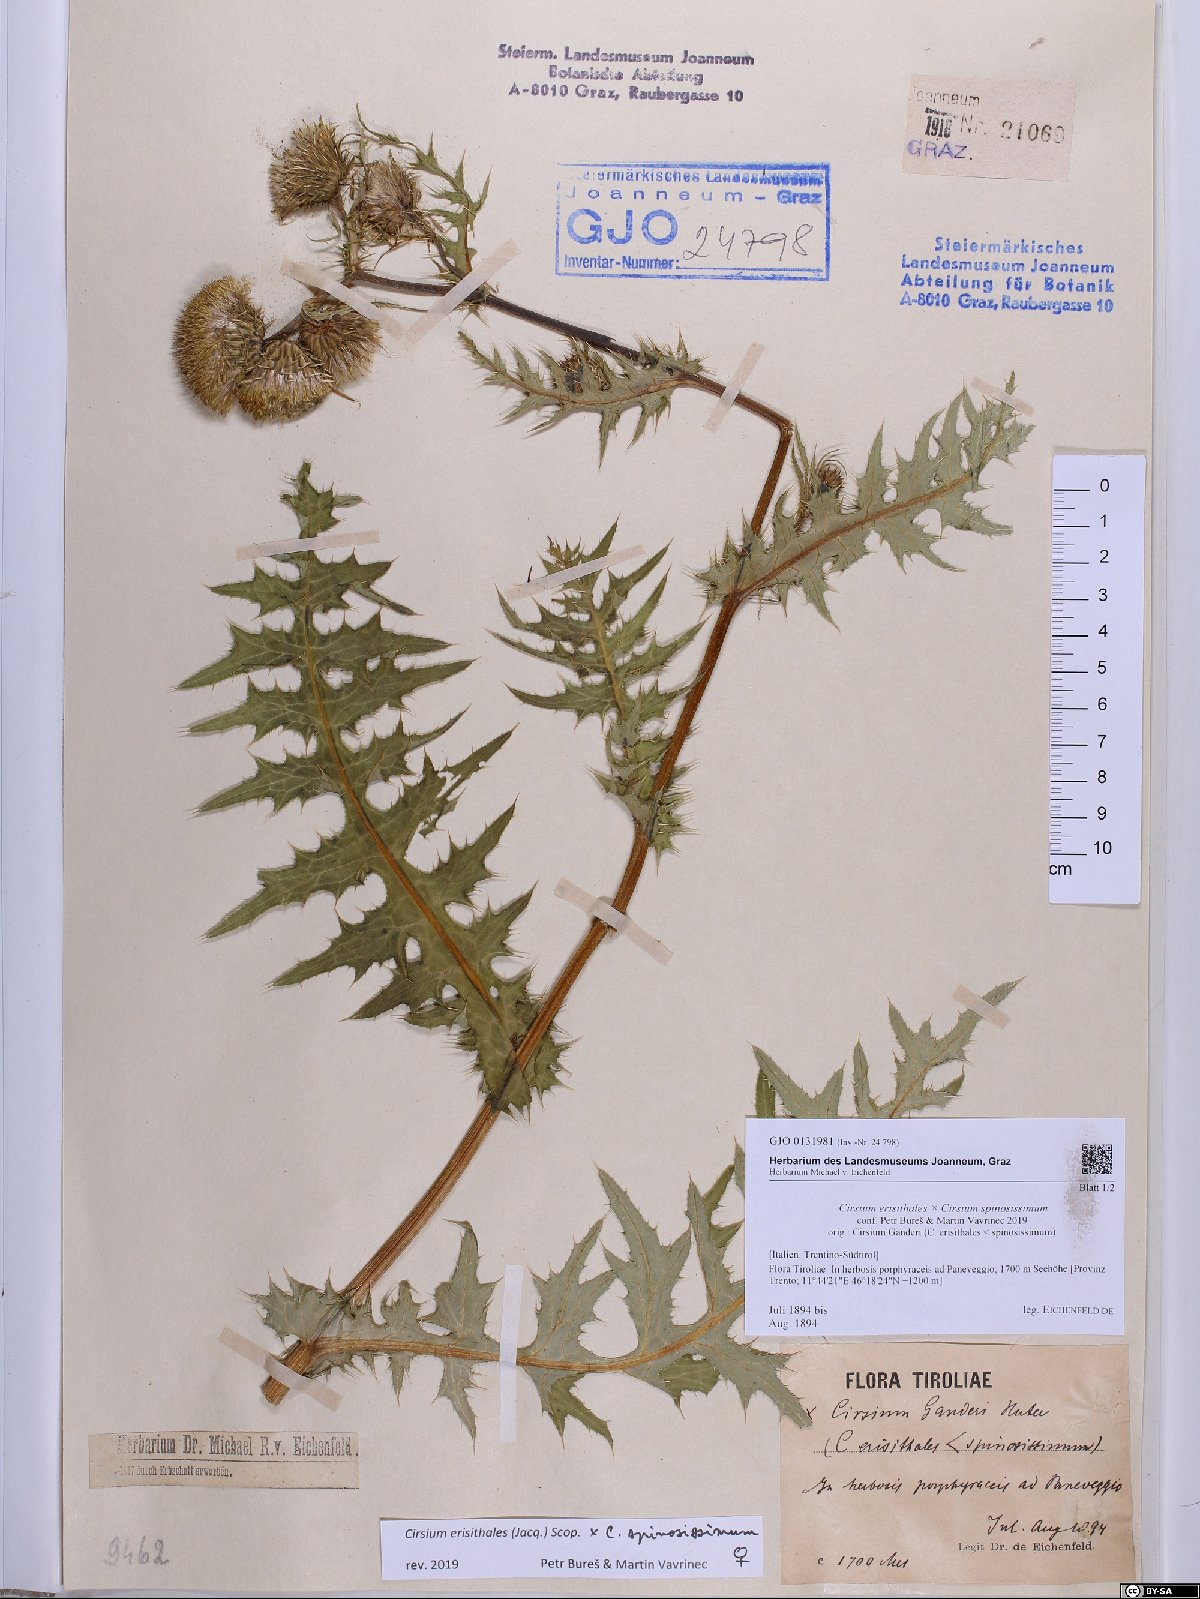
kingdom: Plantae
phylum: Tracheophyta
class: Magnoliopsida
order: Asterales
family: Asteraceae
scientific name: Asteraceae
